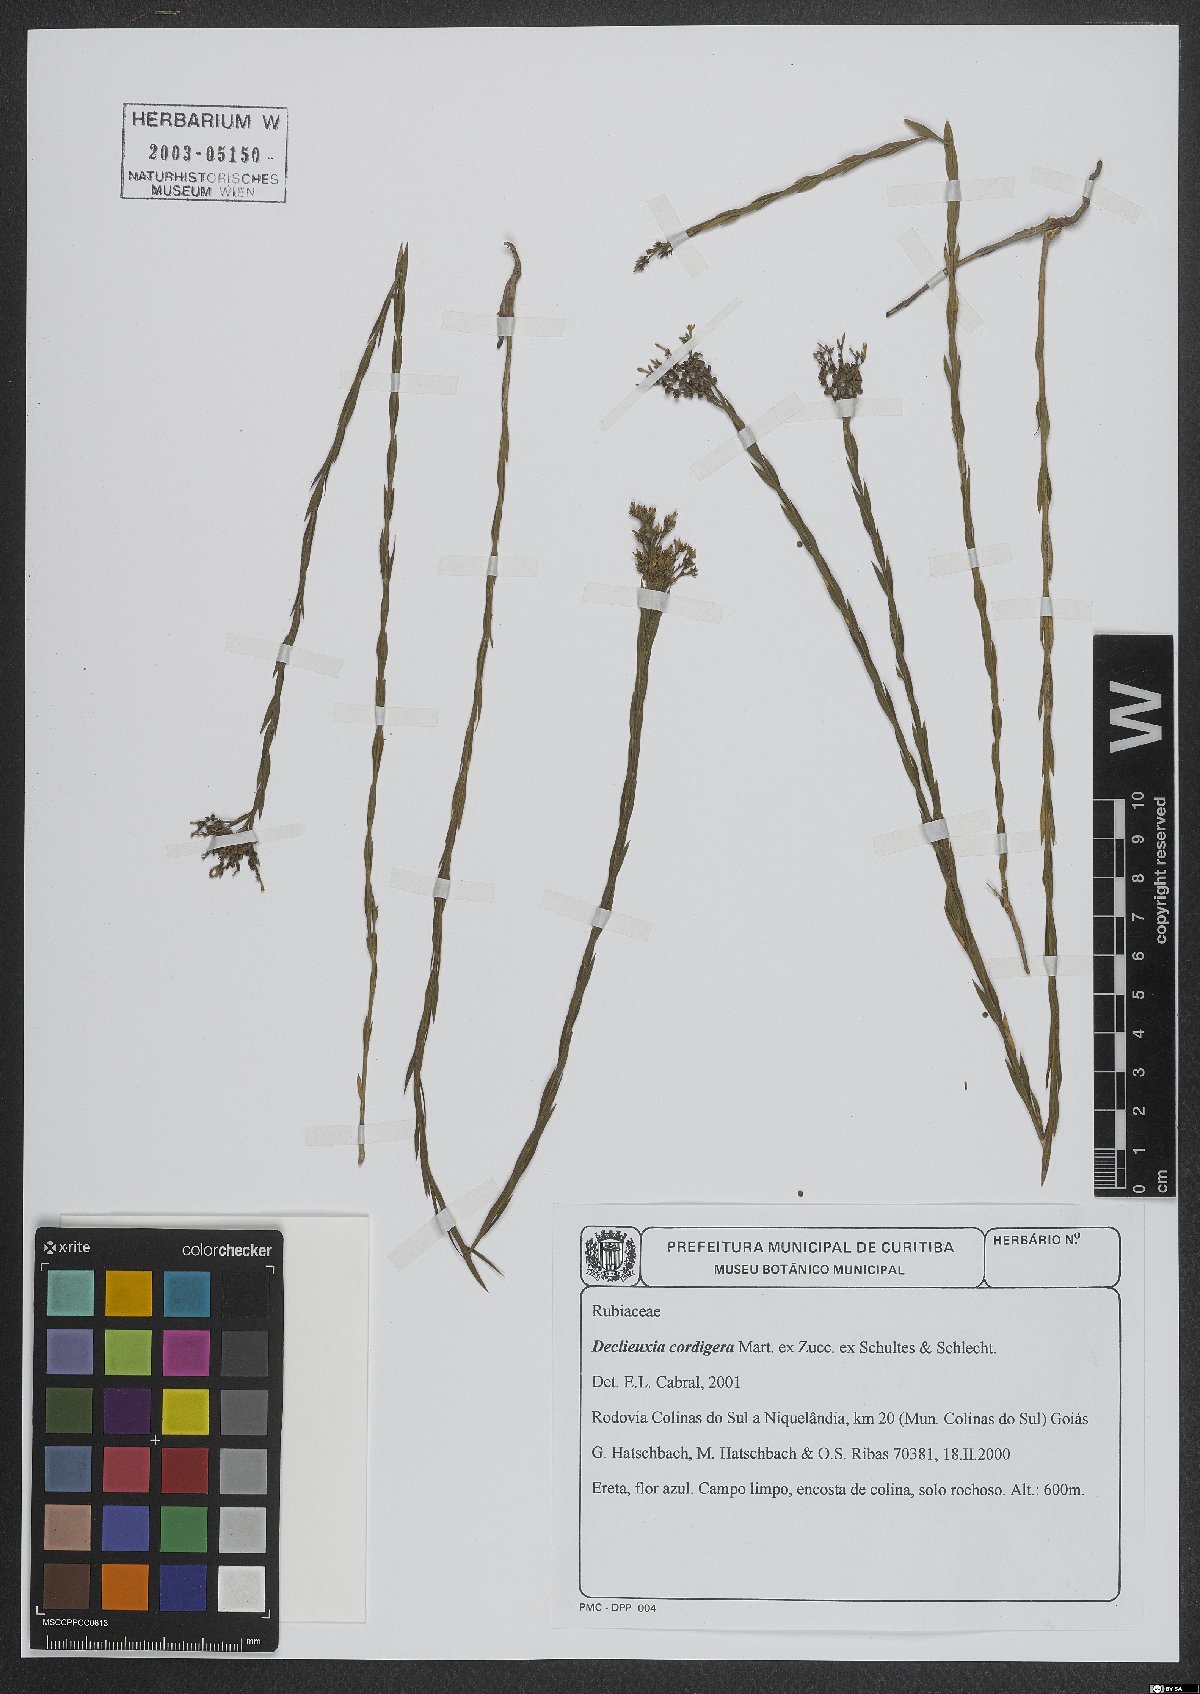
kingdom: Plantae
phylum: Tracheophyta
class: Magnoliopsida
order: Gentianales
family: Rubiaceae
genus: Declieuxia
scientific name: Declieuxia cordigera
